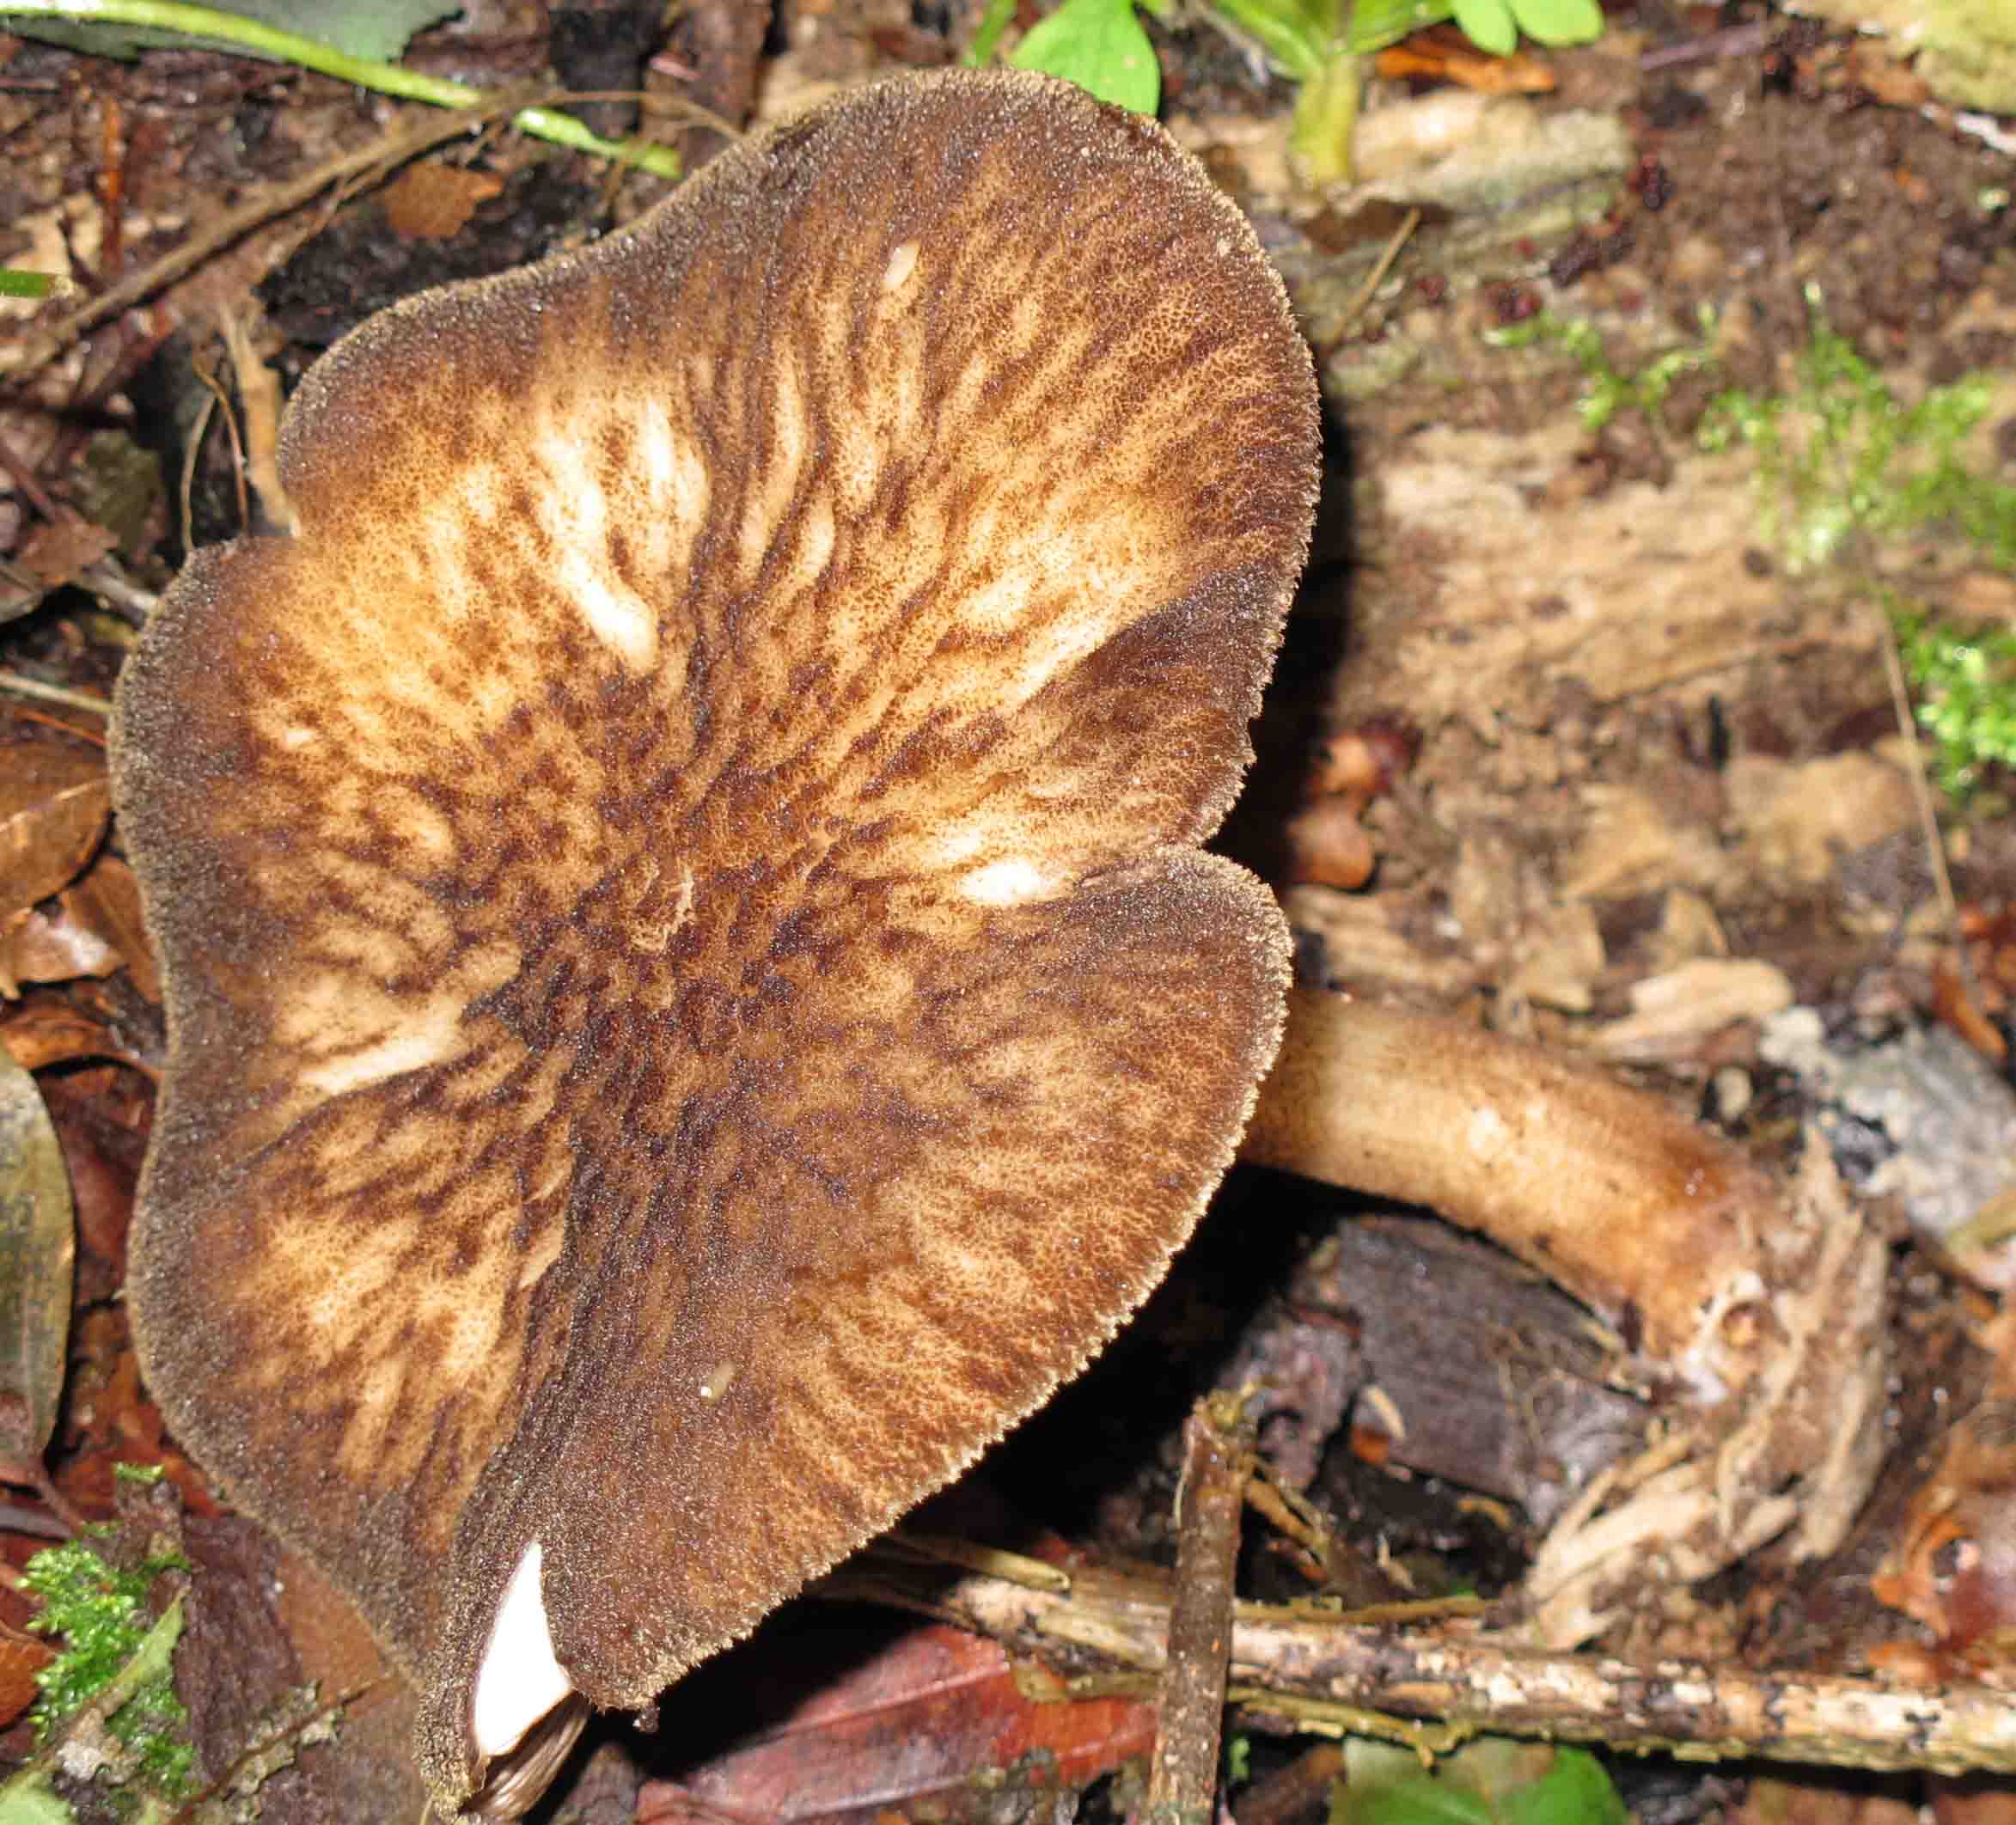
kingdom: Fungi
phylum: Basidiomycota
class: Agaricomycetes
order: Agaricales
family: Pluteaceae
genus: Pluteus
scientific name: Pluteus umbrosus
